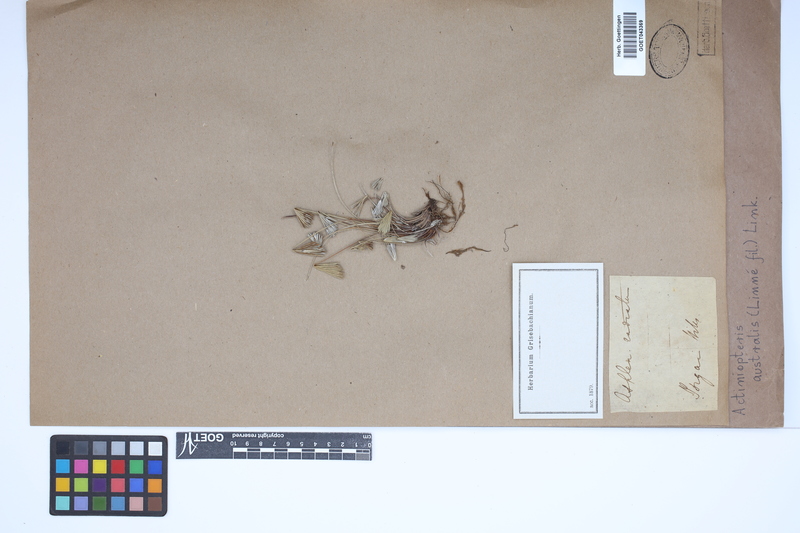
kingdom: Plantae
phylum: Tracheophyta
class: Polypodiopsida
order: Polypodiales
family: Pteridaceae
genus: Actiniopteris
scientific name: Actiniopteris australis
